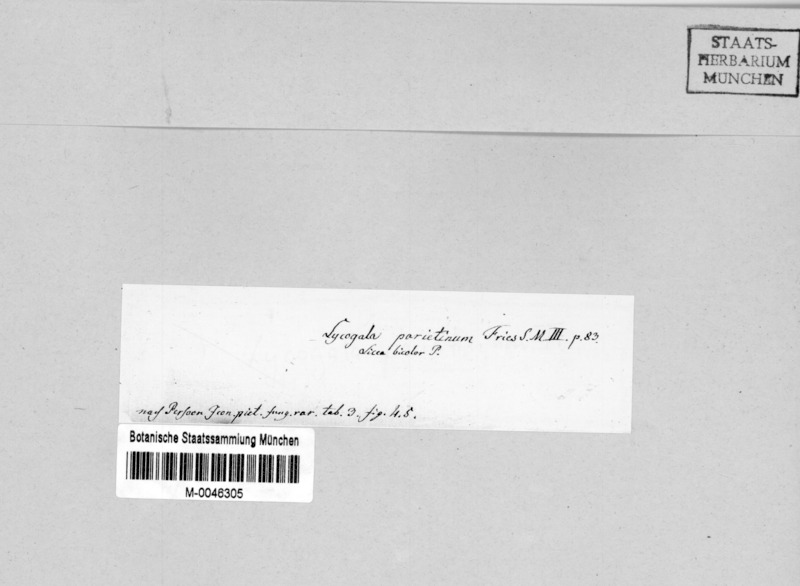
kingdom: Protozoa
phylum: Mycetozoa
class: Myxomycetes
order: Cribrariales
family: Tubiferaceae
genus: Lycogala
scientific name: Lycogala
